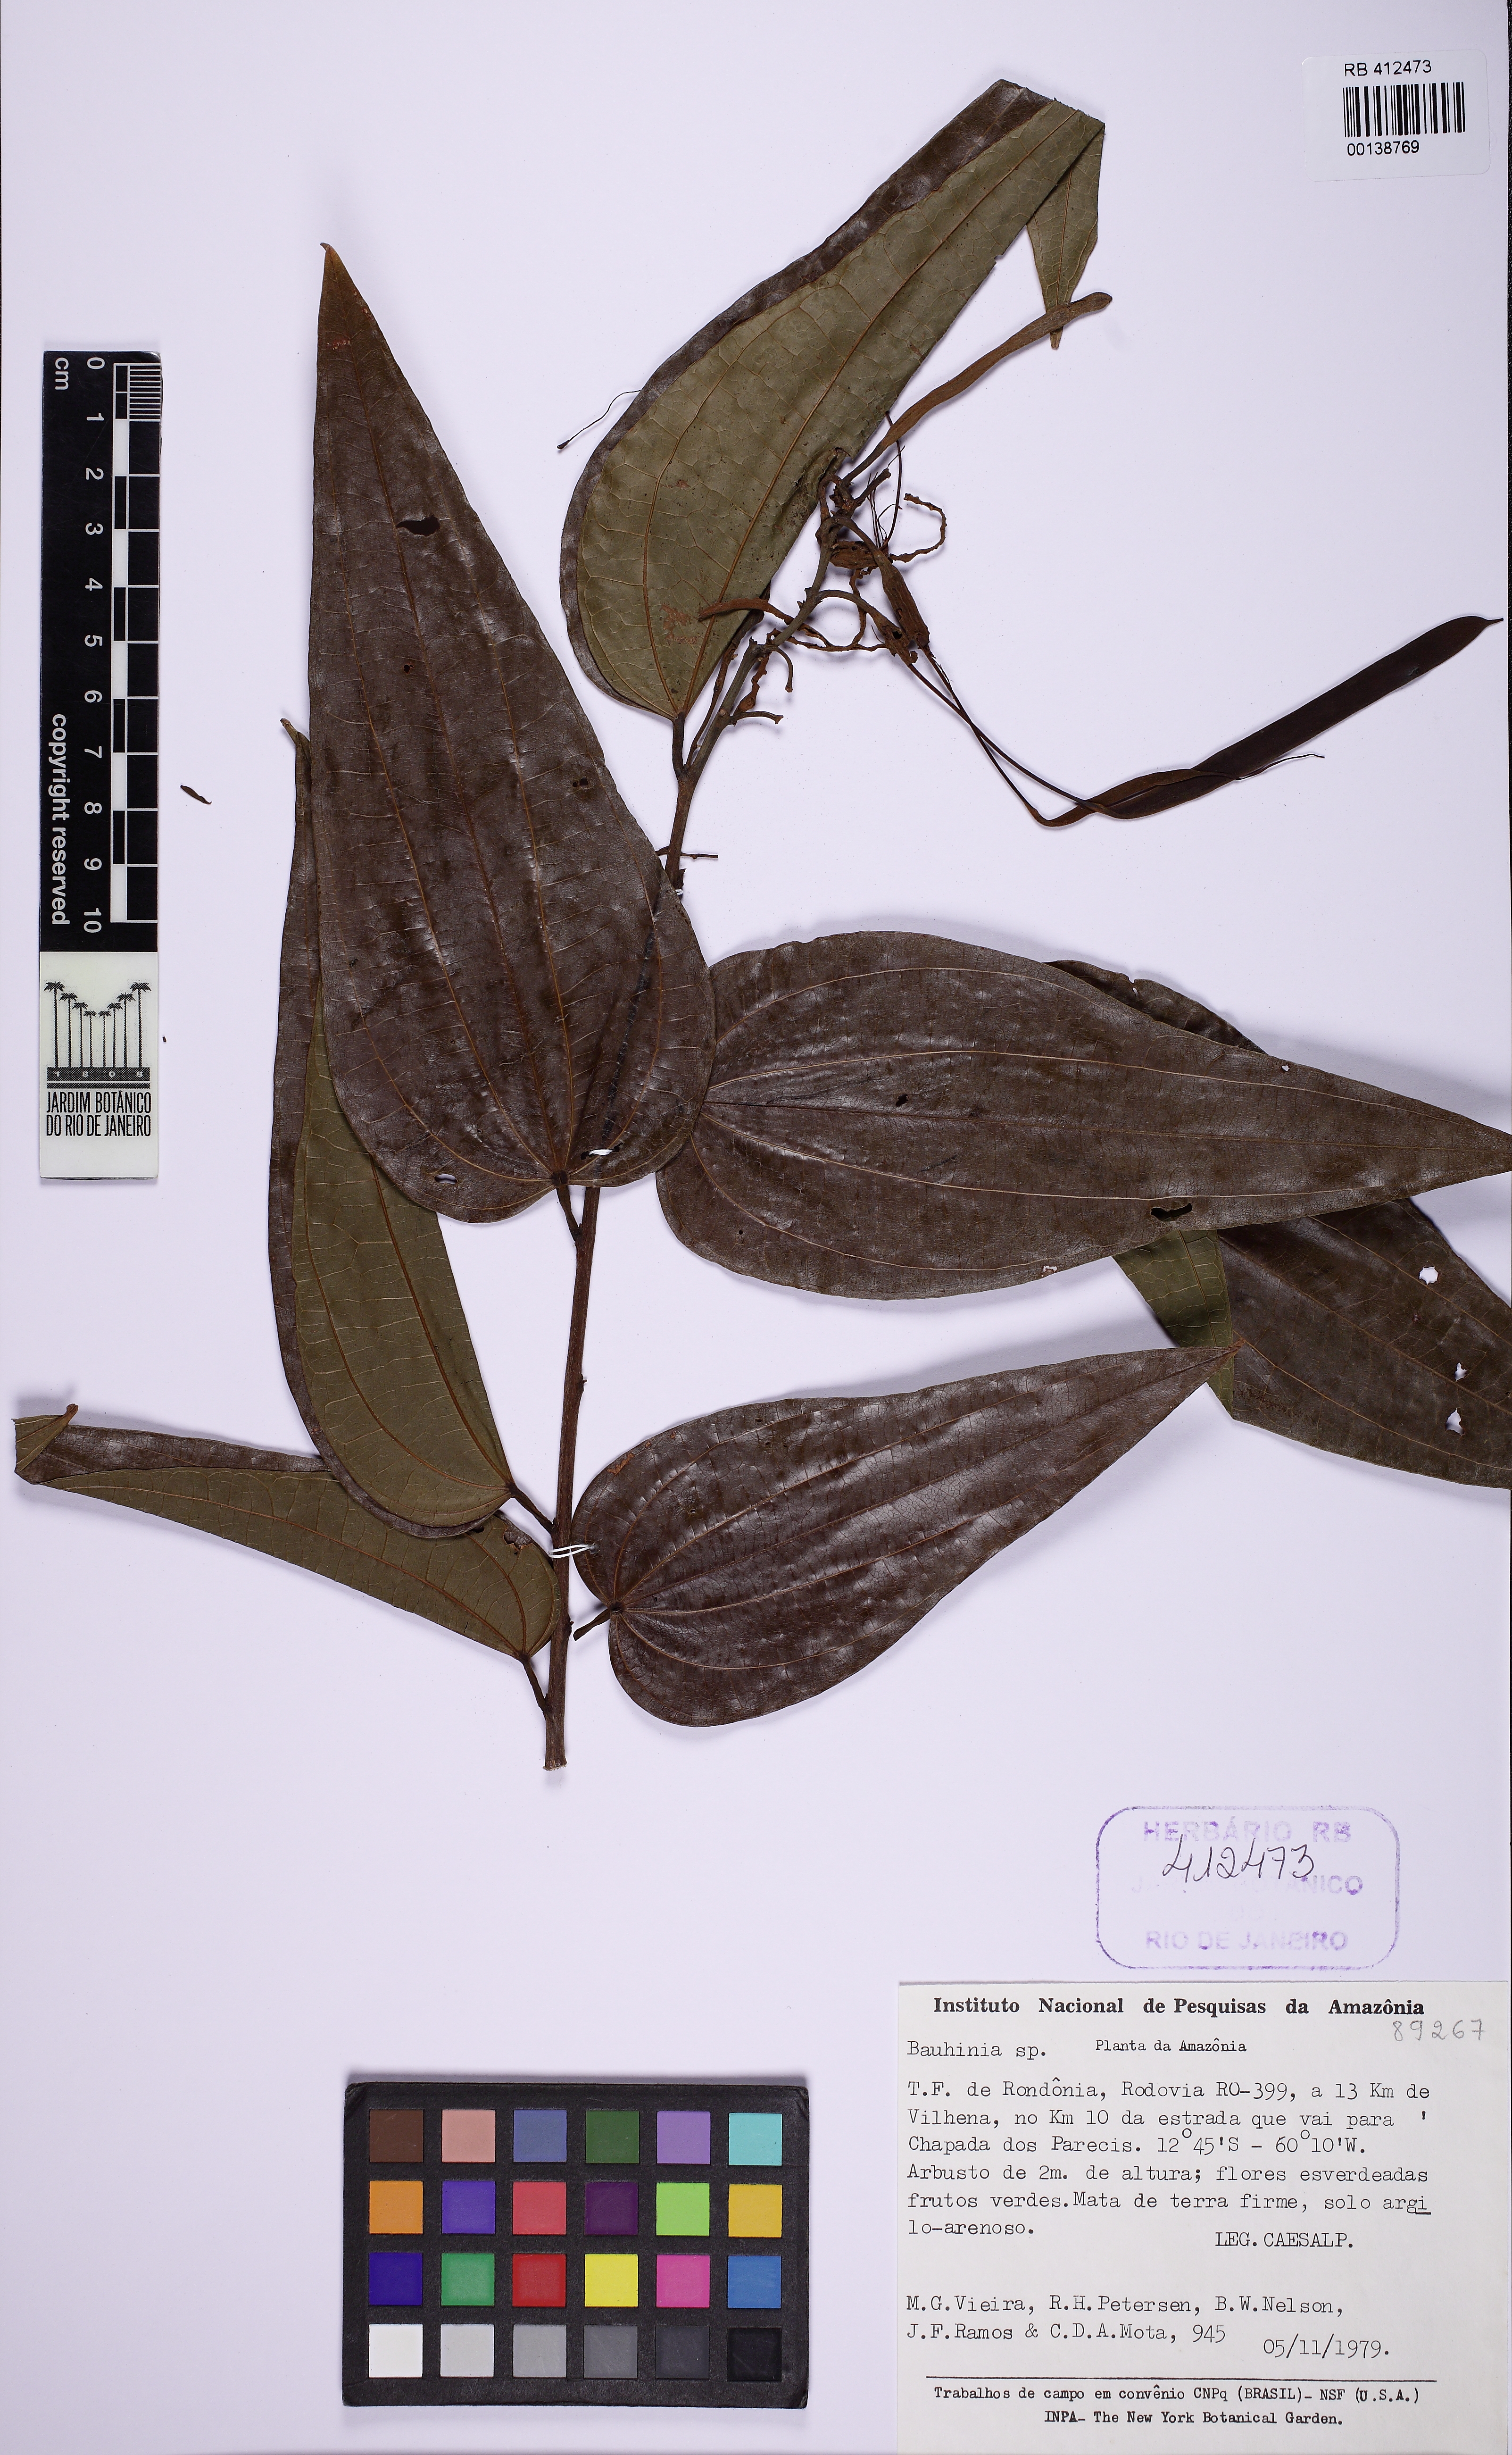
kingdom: Plantae
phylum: Tracheophyta
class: Magnoliopsida
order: Fabales
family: Fabaceae
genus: Bauhinia
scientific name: Bauhinia
